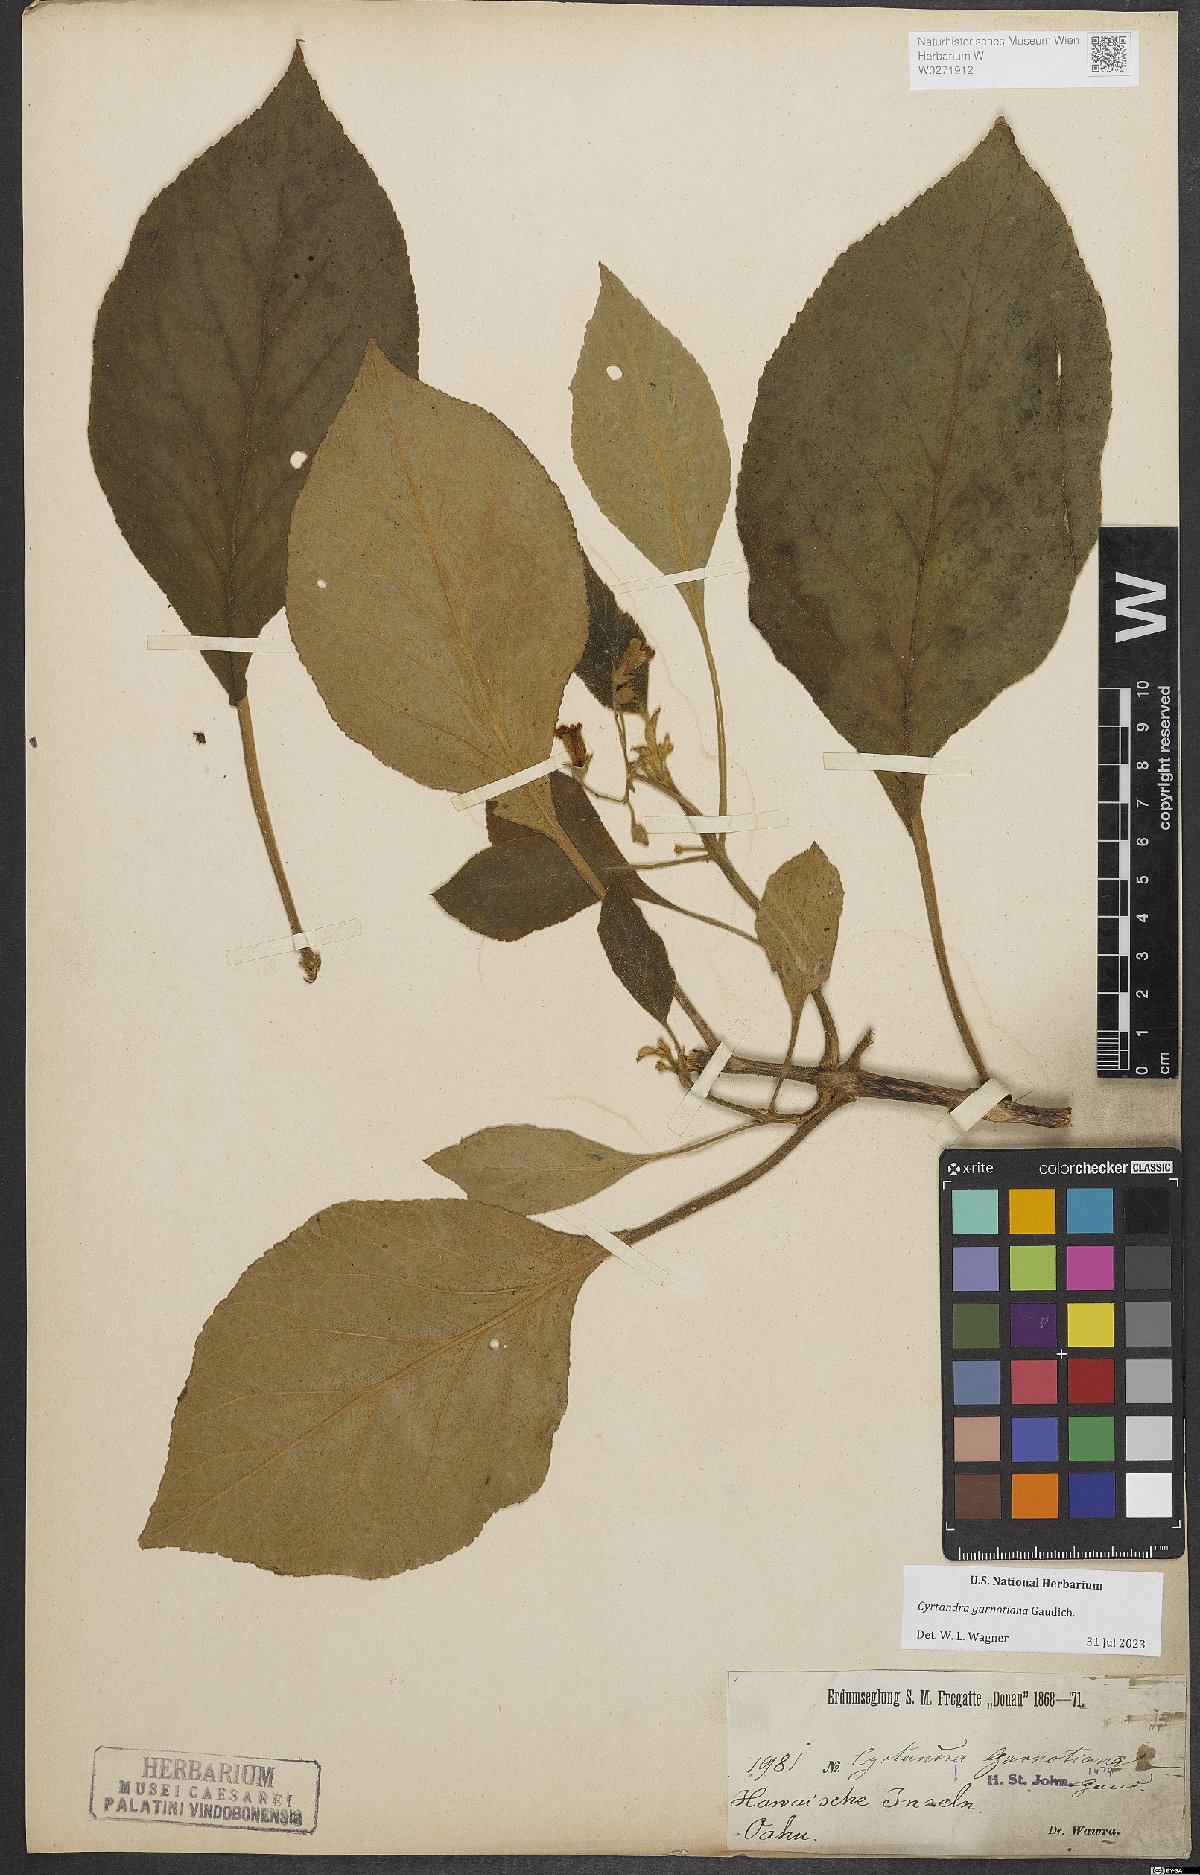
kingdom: Plantae
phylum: Tracheophyta
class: Magnoliopsida
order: Lamiales
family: Gesneriaceae
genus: Cyrtandra
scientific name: Cyrtandra garnotiana
